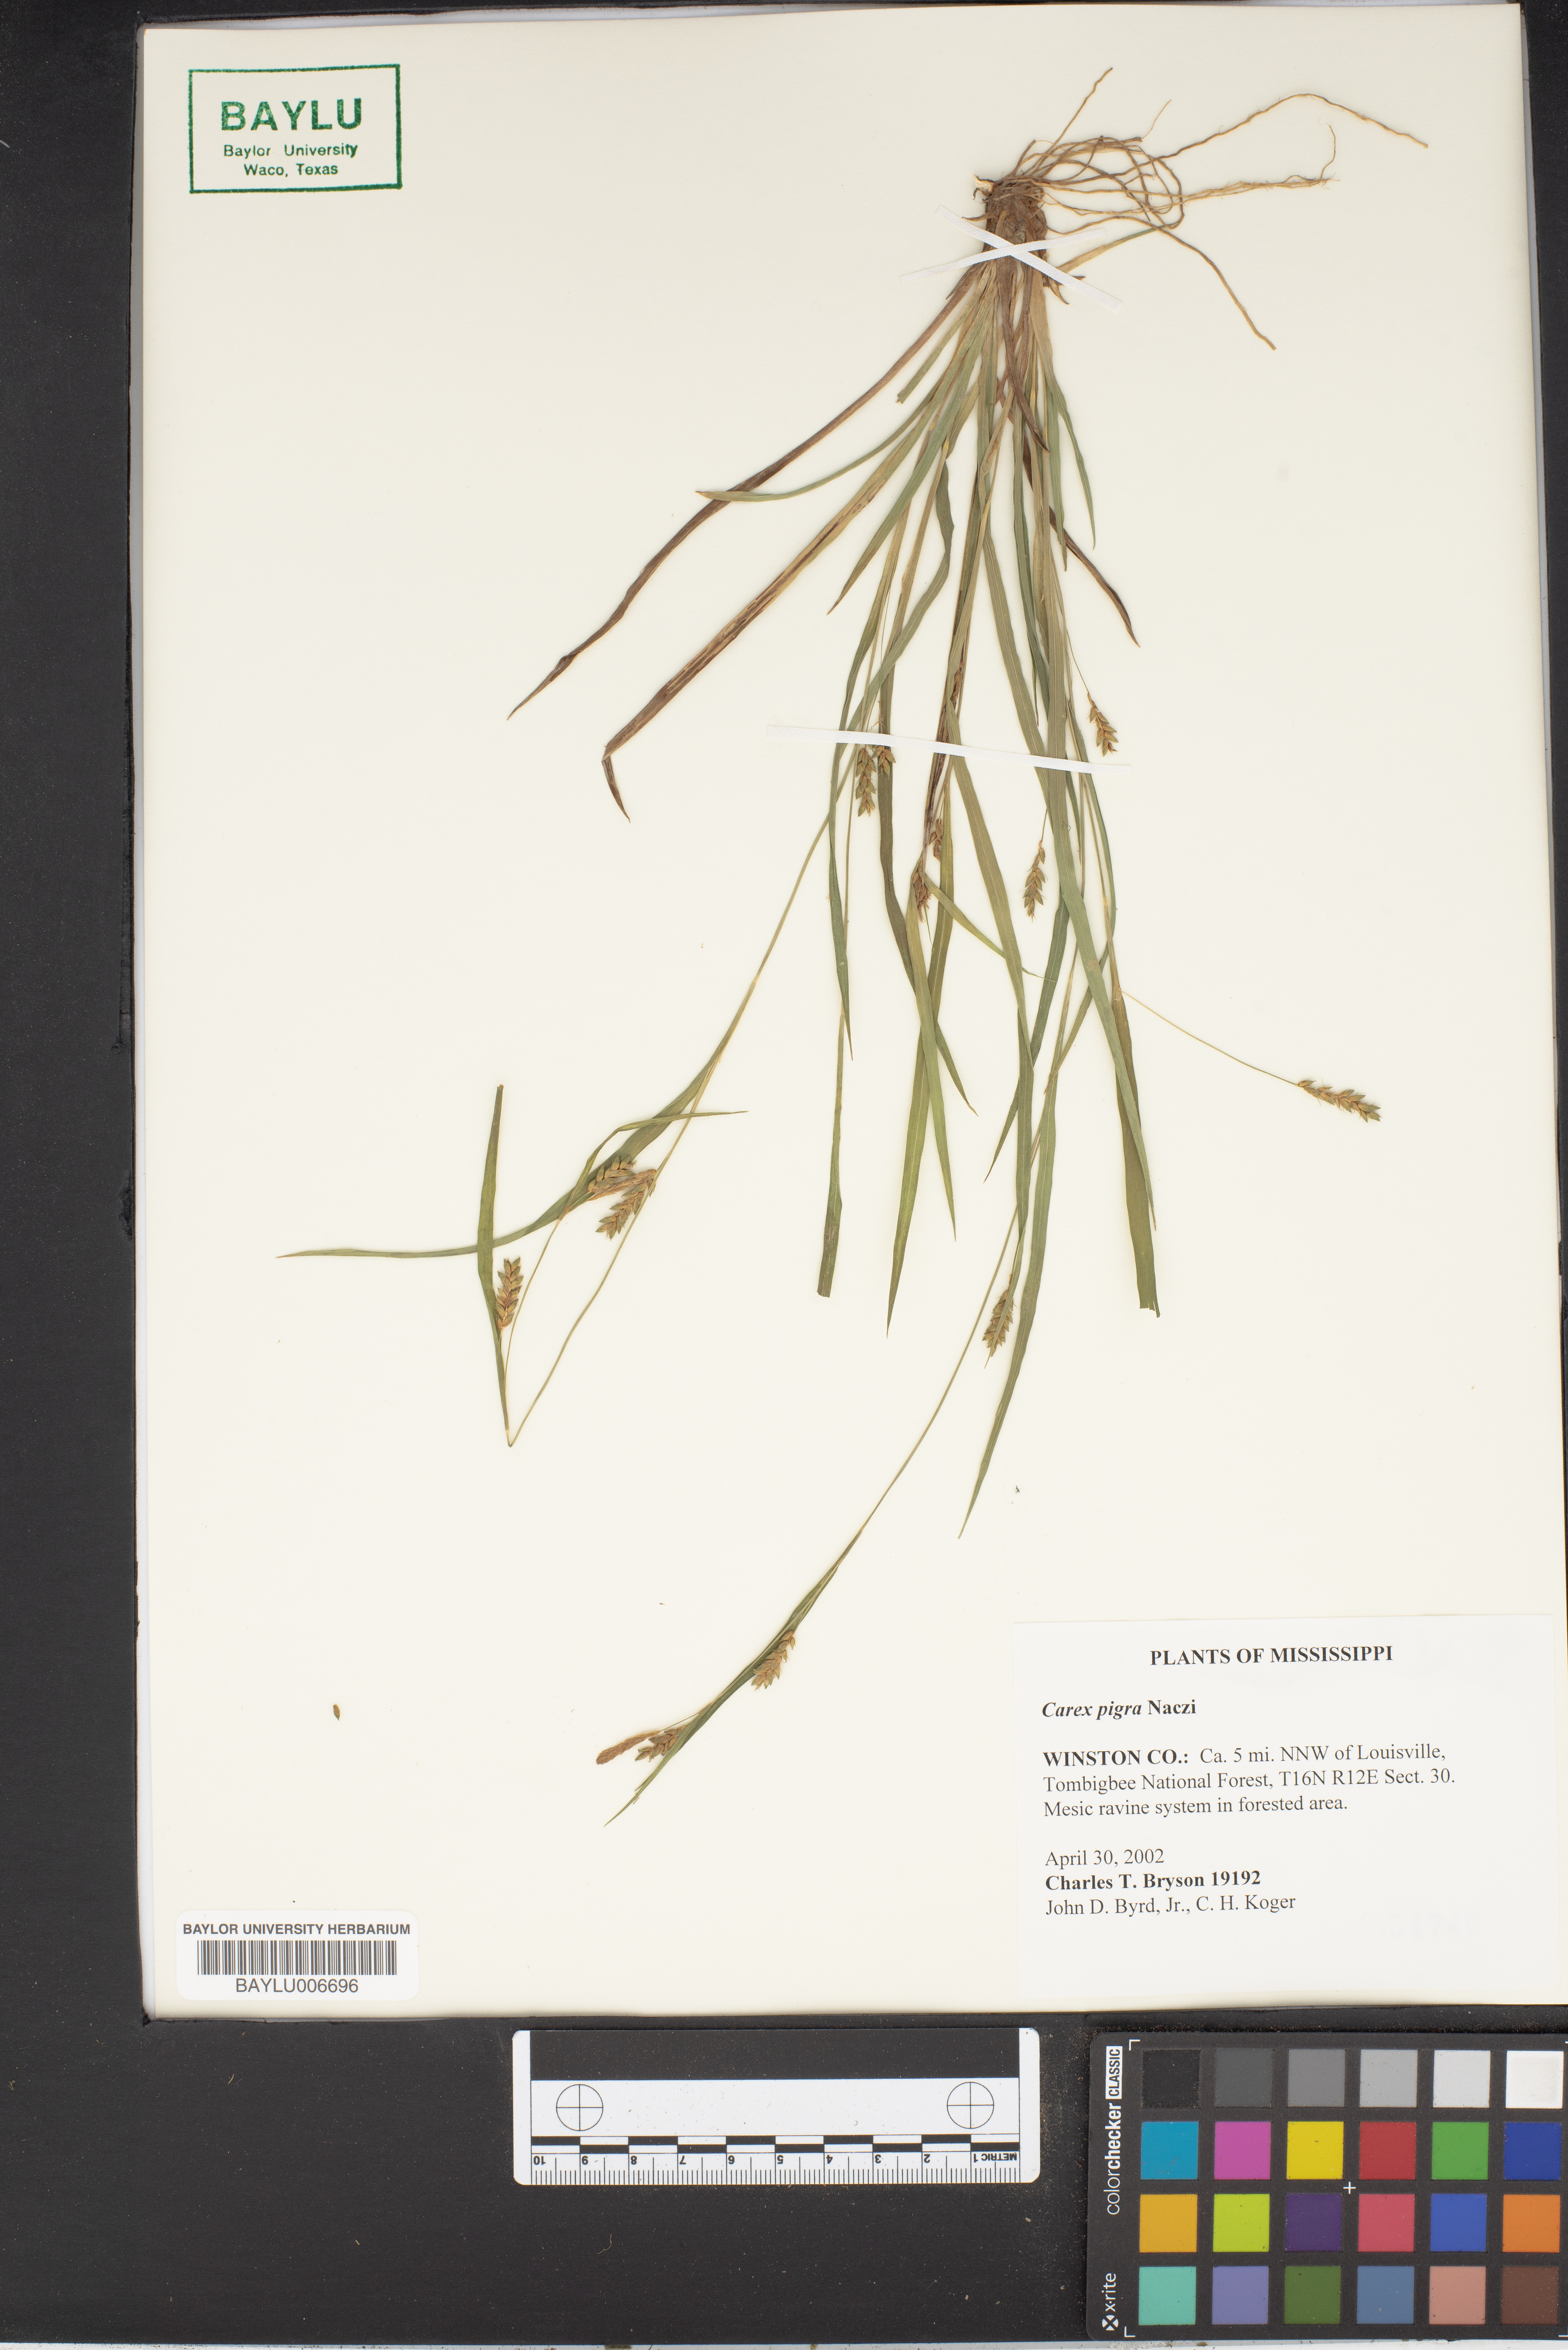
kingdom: Plantae
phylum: Tracheophyta
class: Liliopsida
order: Poales
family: Cyperaceae
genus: Carex
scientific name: Carex pigra
